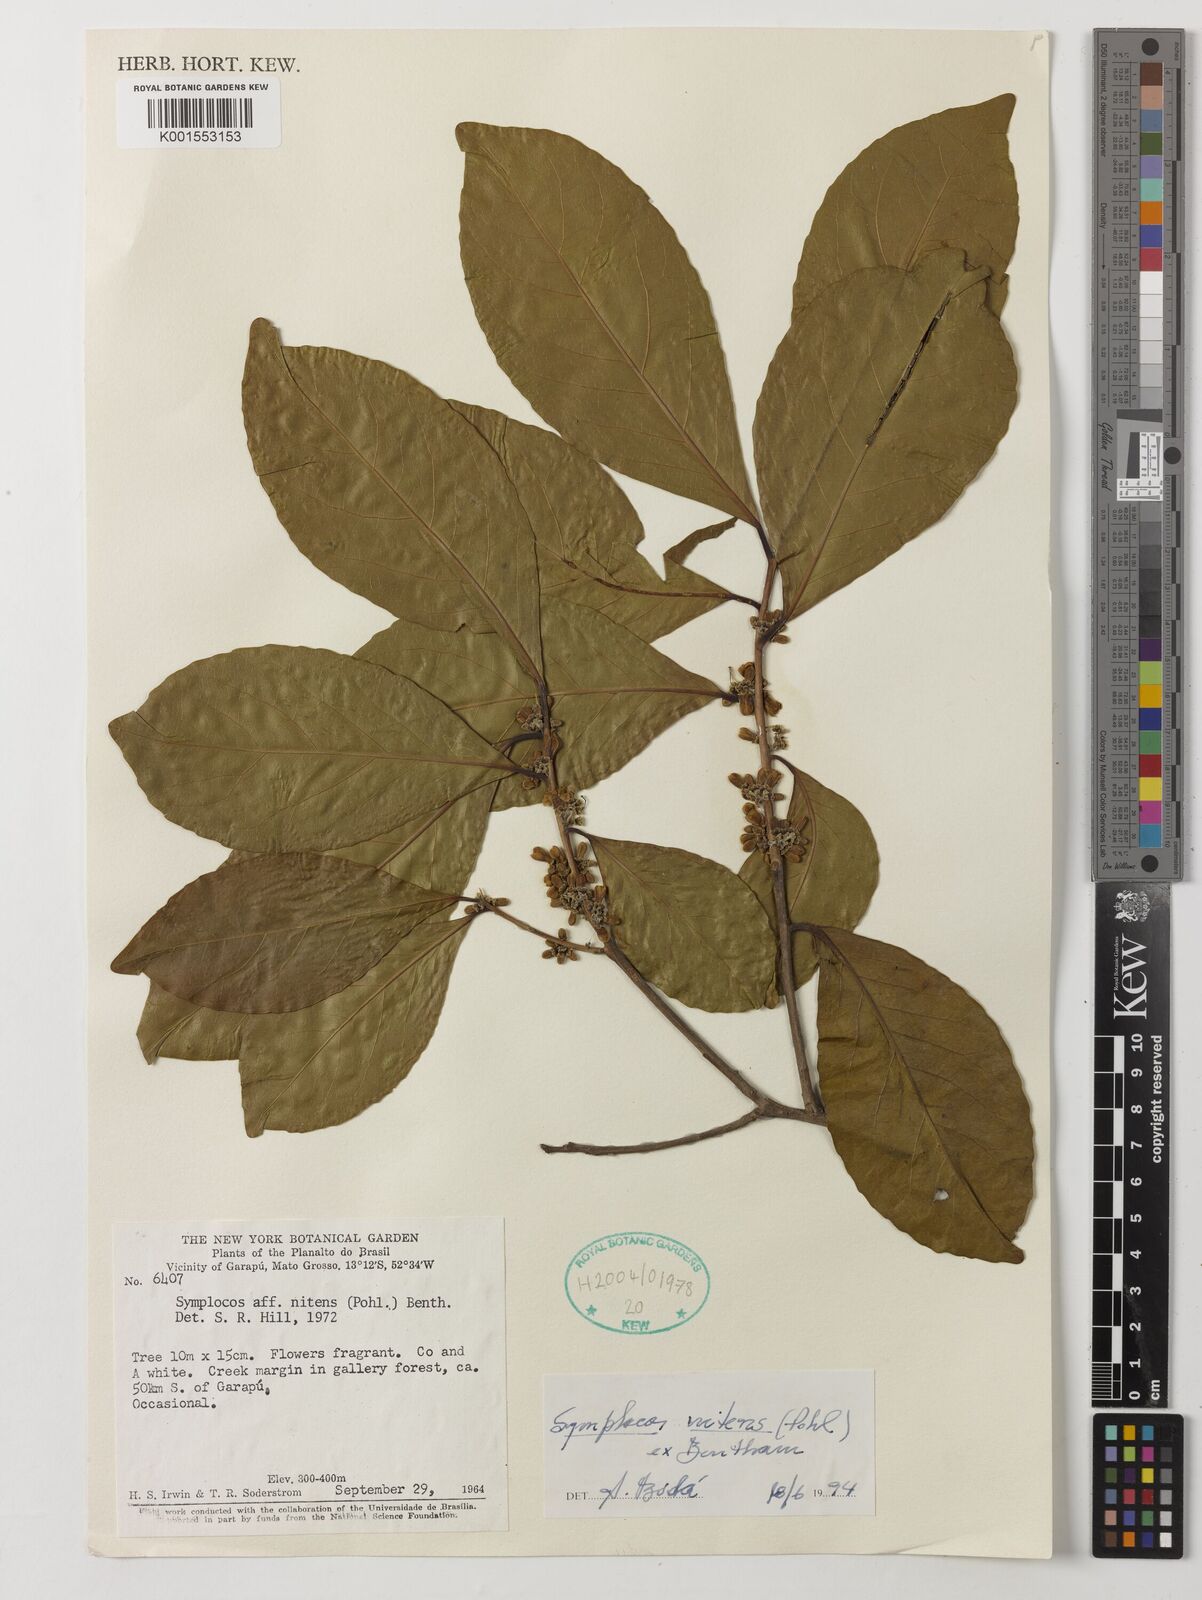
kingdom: Plantae
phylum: Tracheophyta
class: Magnoliopsida
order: Ericales
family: Symplocaceae
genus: Symplocos
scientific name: Symplocos nitens
